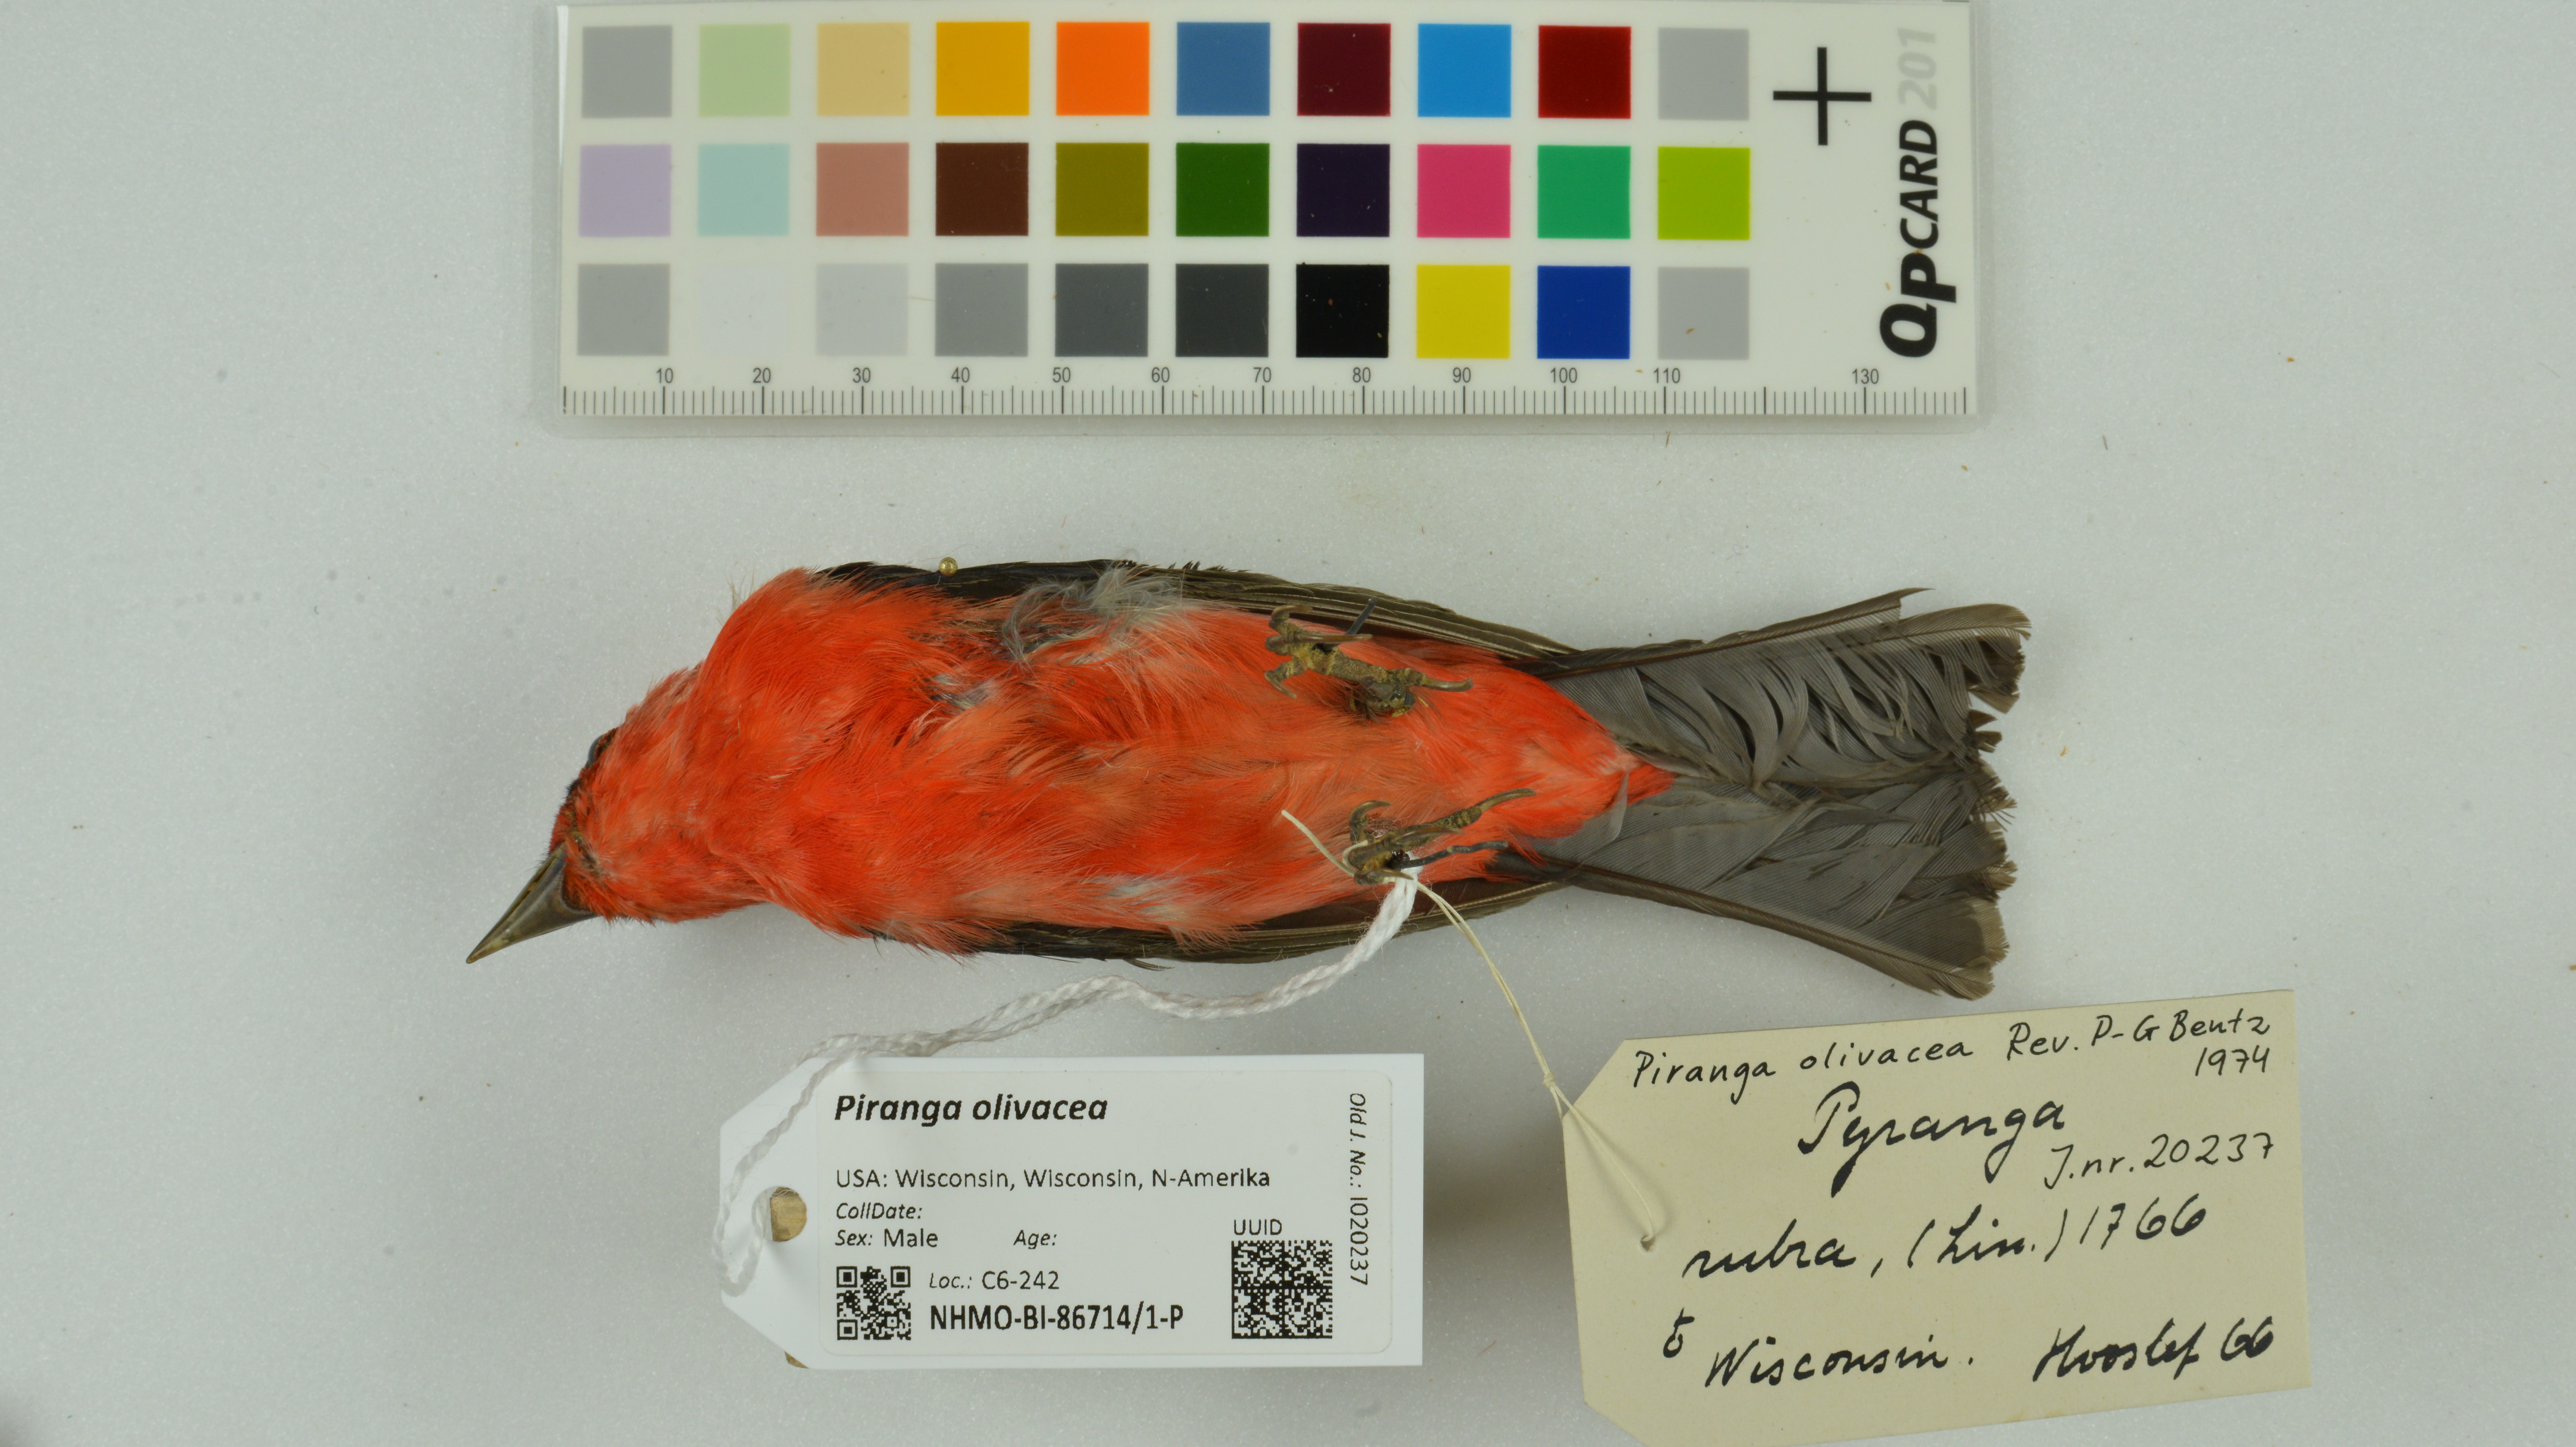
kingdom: Animalia
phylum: Chordata
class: Aves
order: Passeriformes
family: Cardinalidae
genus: Piranga
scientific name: Piranga olivacea
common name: Scarlet tanager
